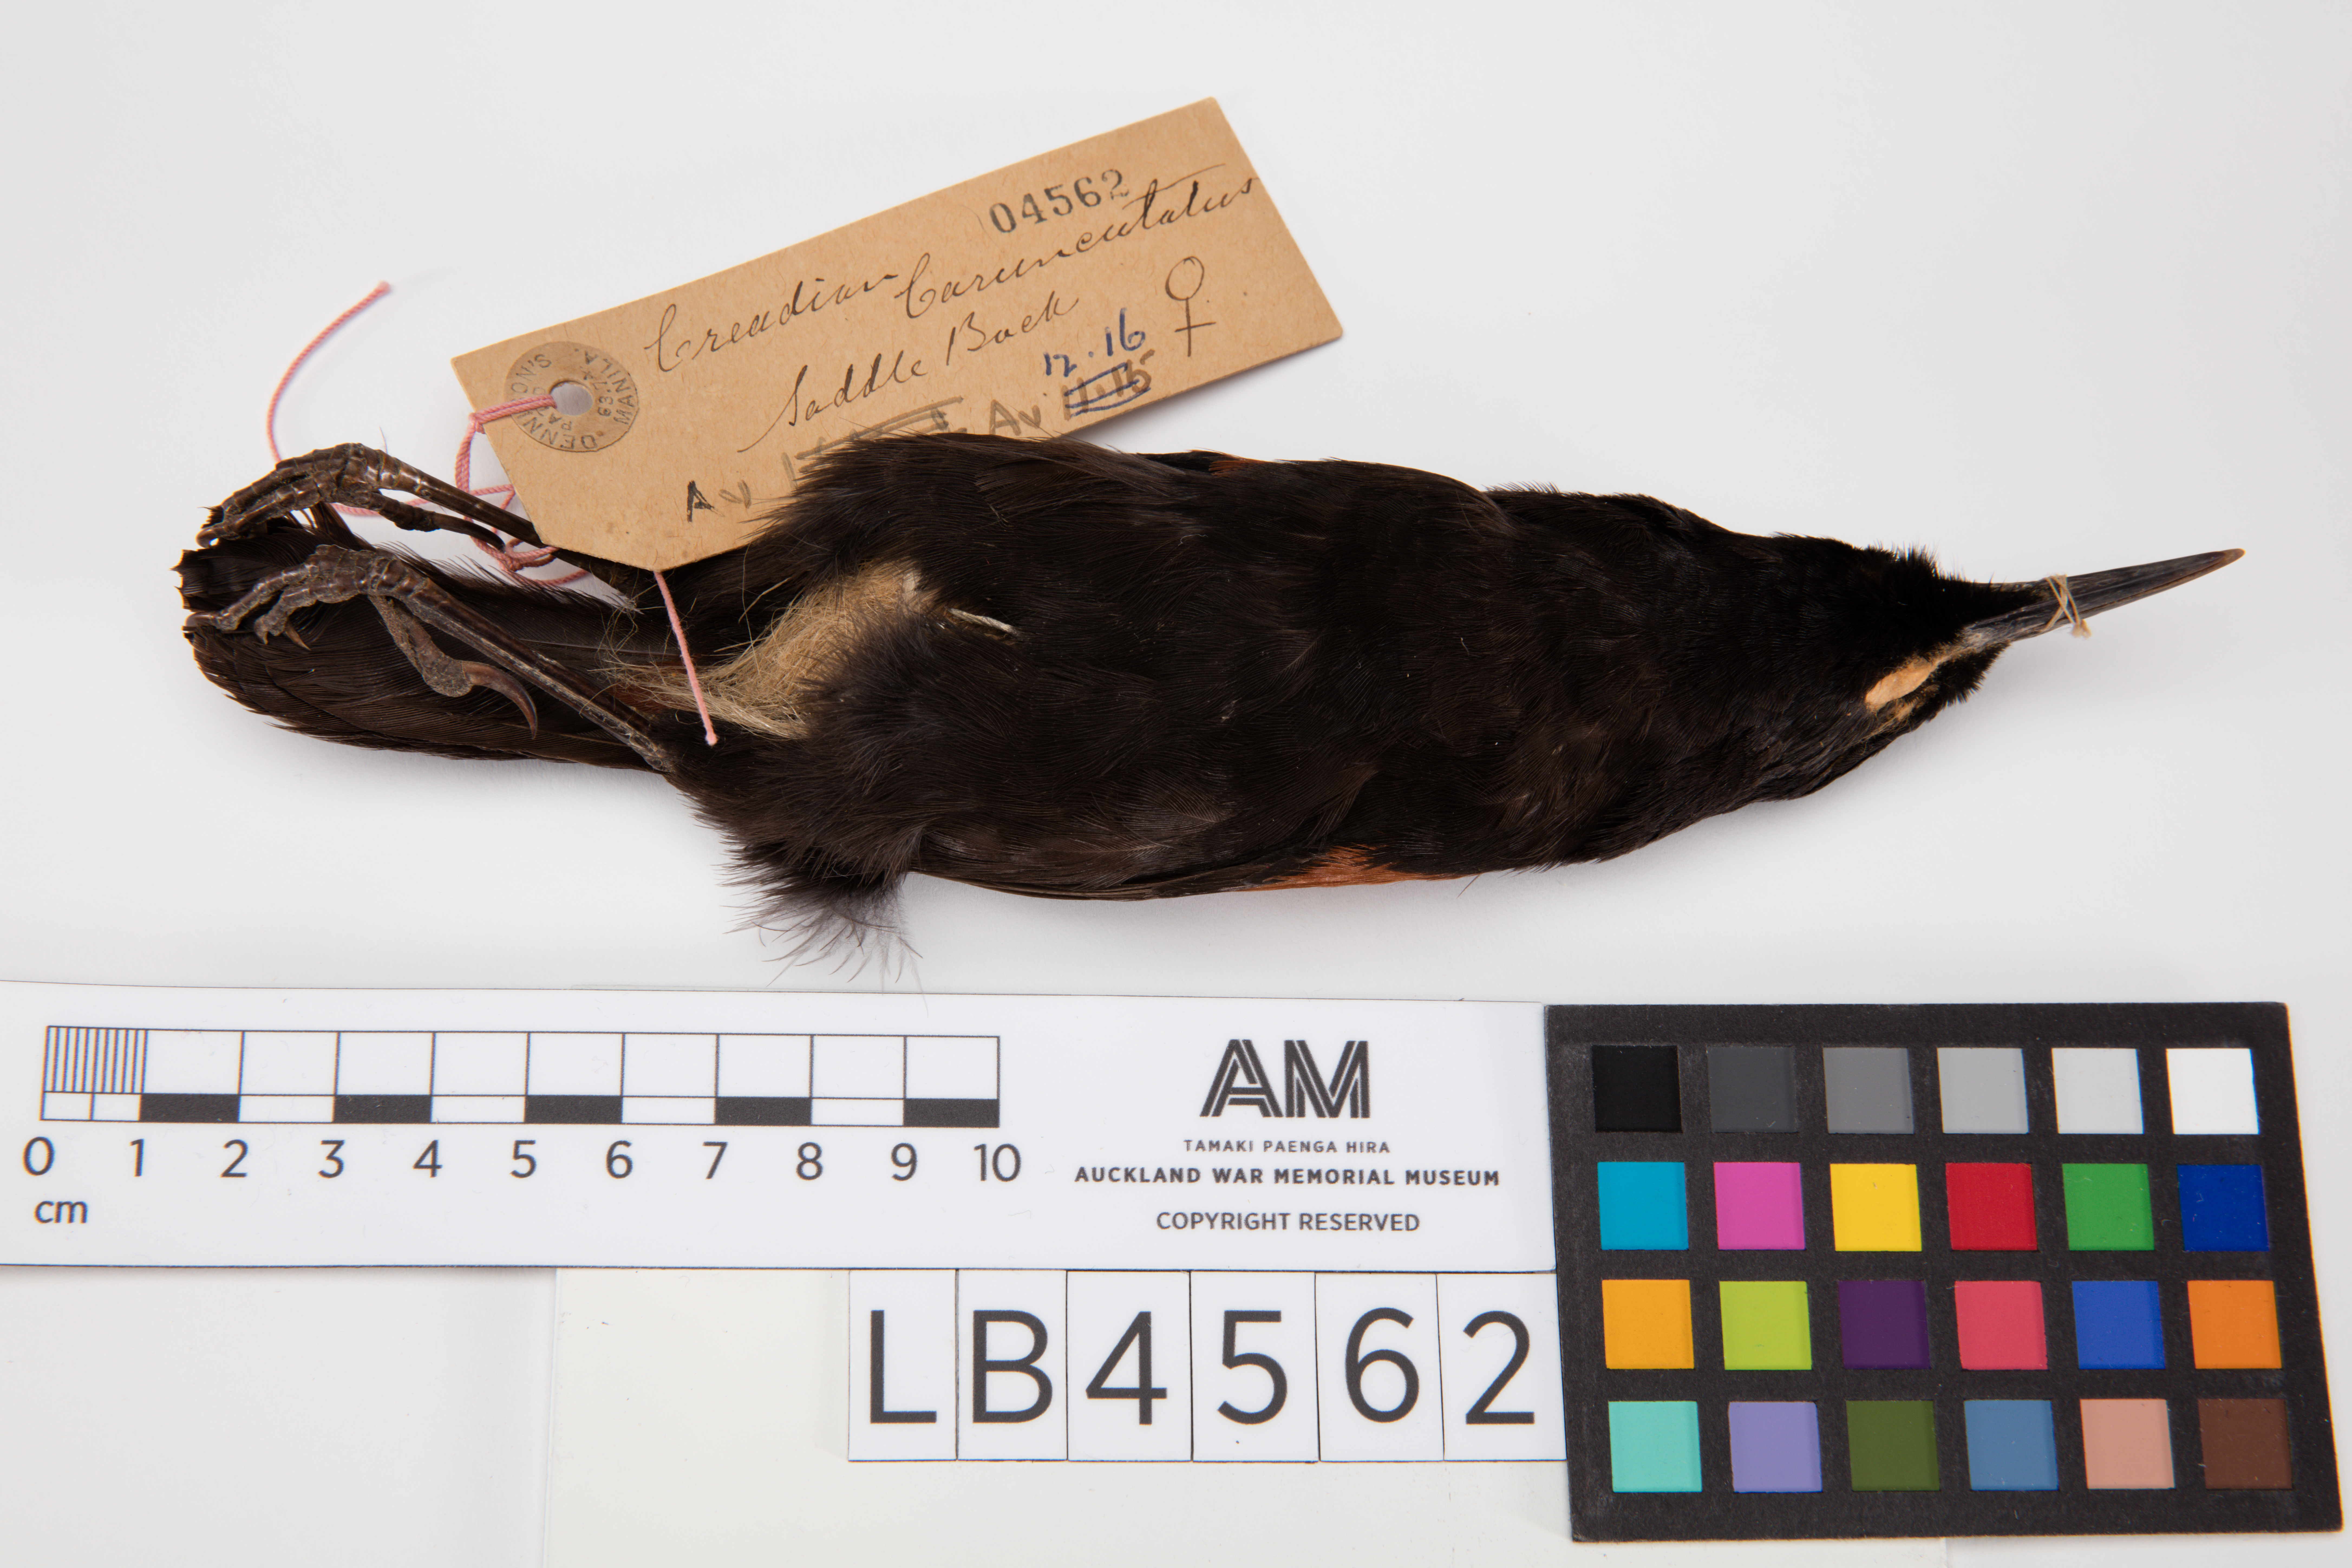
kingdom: Animalia
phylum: Chordata
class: Aves
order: Passeriformes
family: Callaeatidae
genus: Philesturnus
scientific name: Philesturnus carunculatus
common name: South island saddleback
